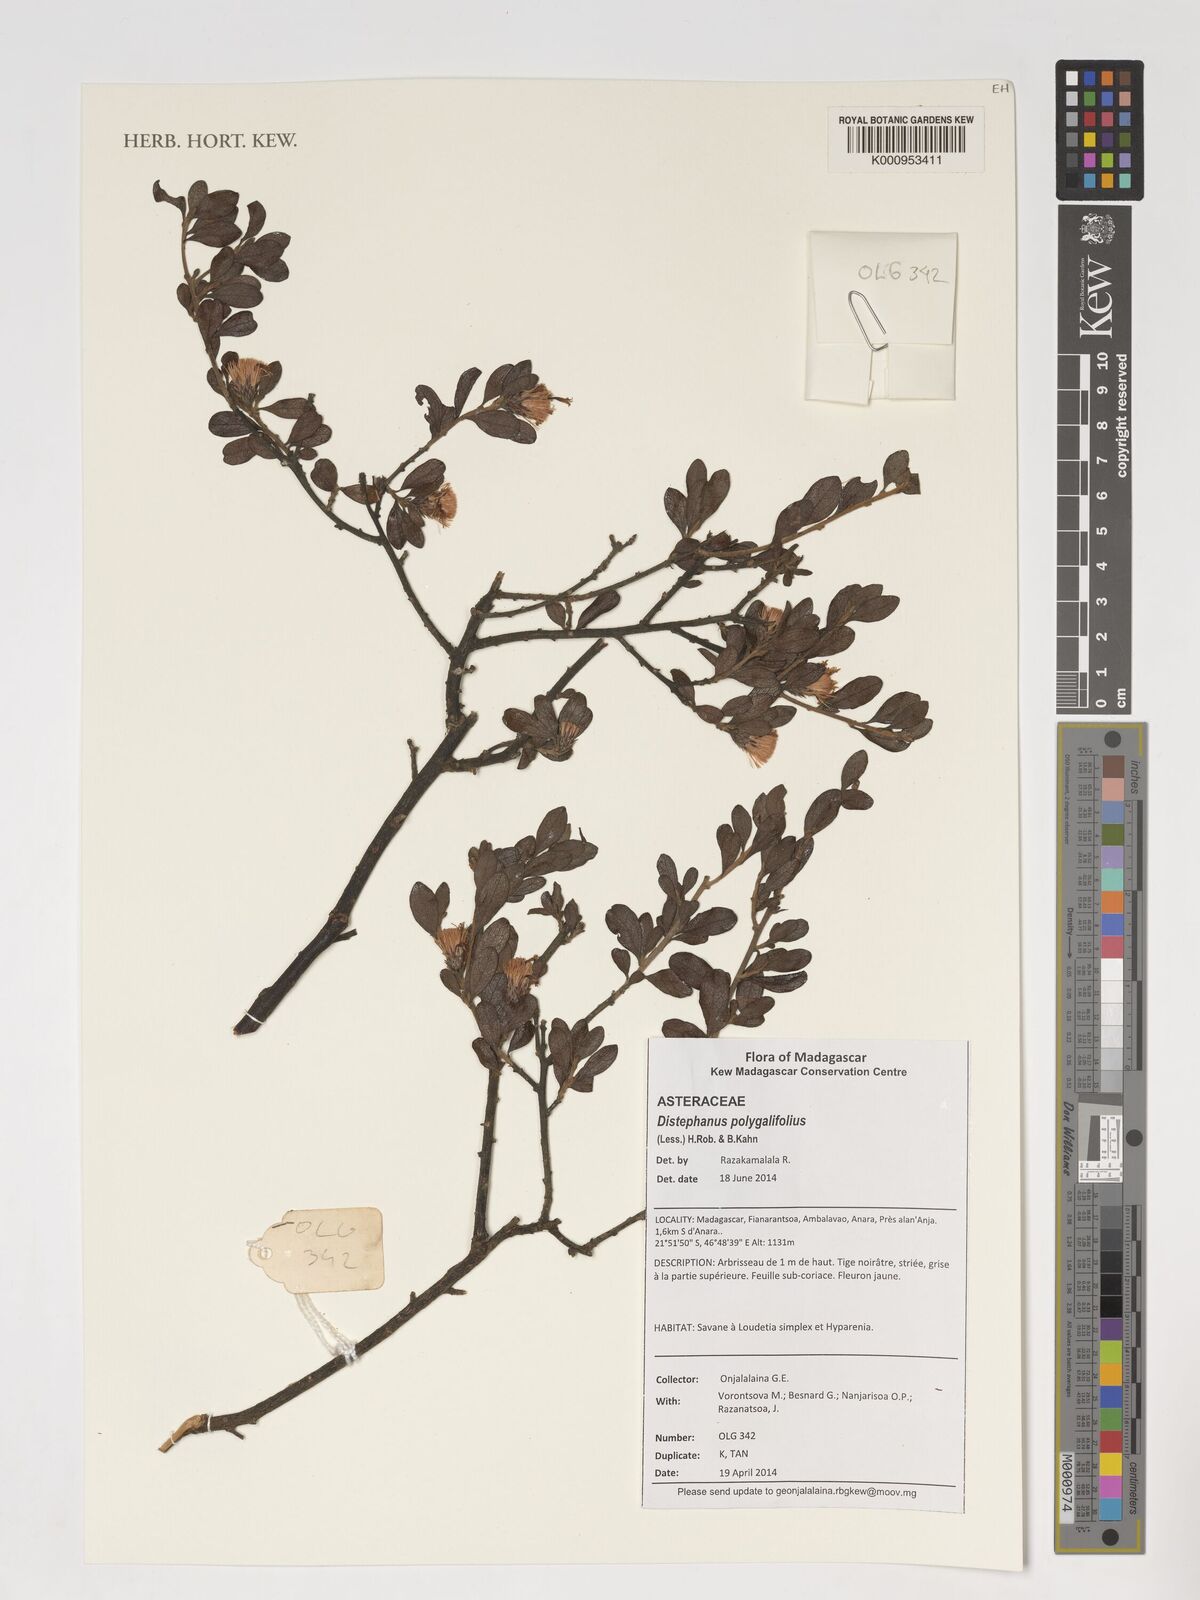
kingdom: Plantae
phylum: Tracheophyta
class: Magnoliopsida
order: Asterales
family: Asteraceae
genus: Distephanus
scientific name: Distephanus polygalifolius
